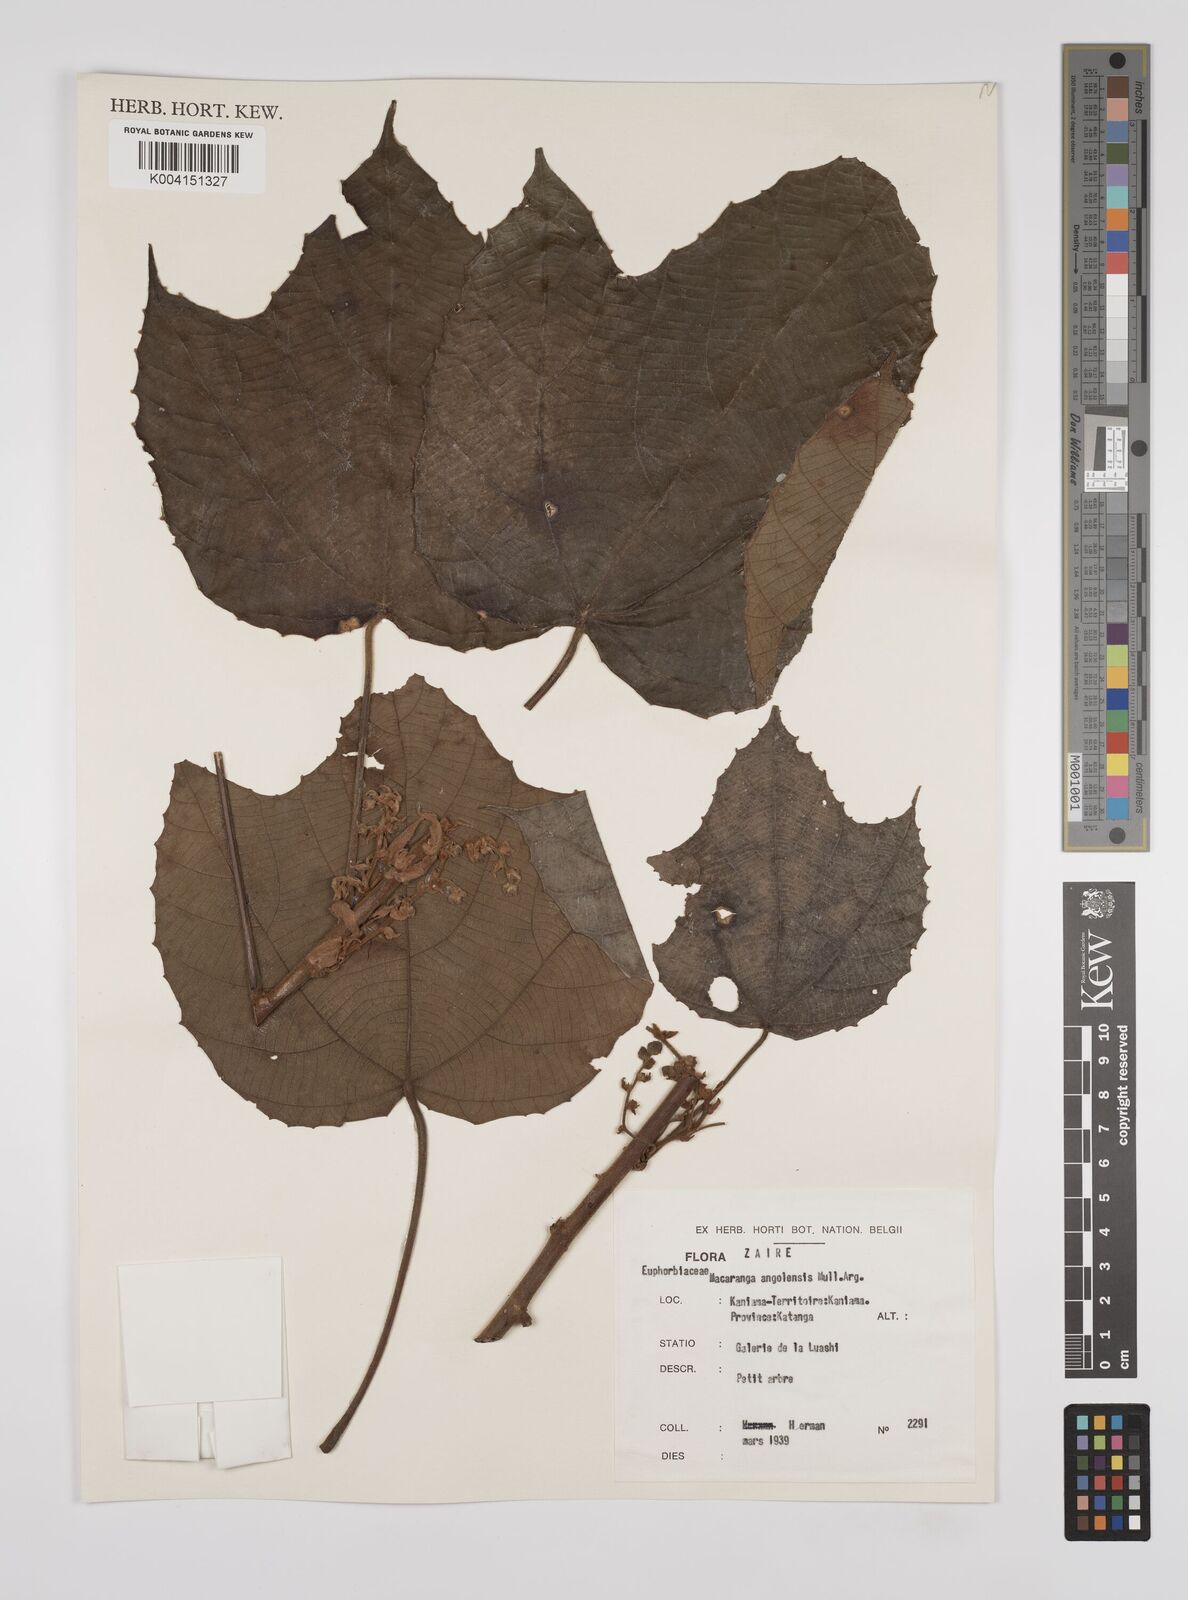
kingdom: Plantae
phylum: Tracheophyta
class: Magnoliopsida
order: Malpighiales
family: Euphorbiaceae
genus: Macaranga
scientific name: Macaranga angolensis
